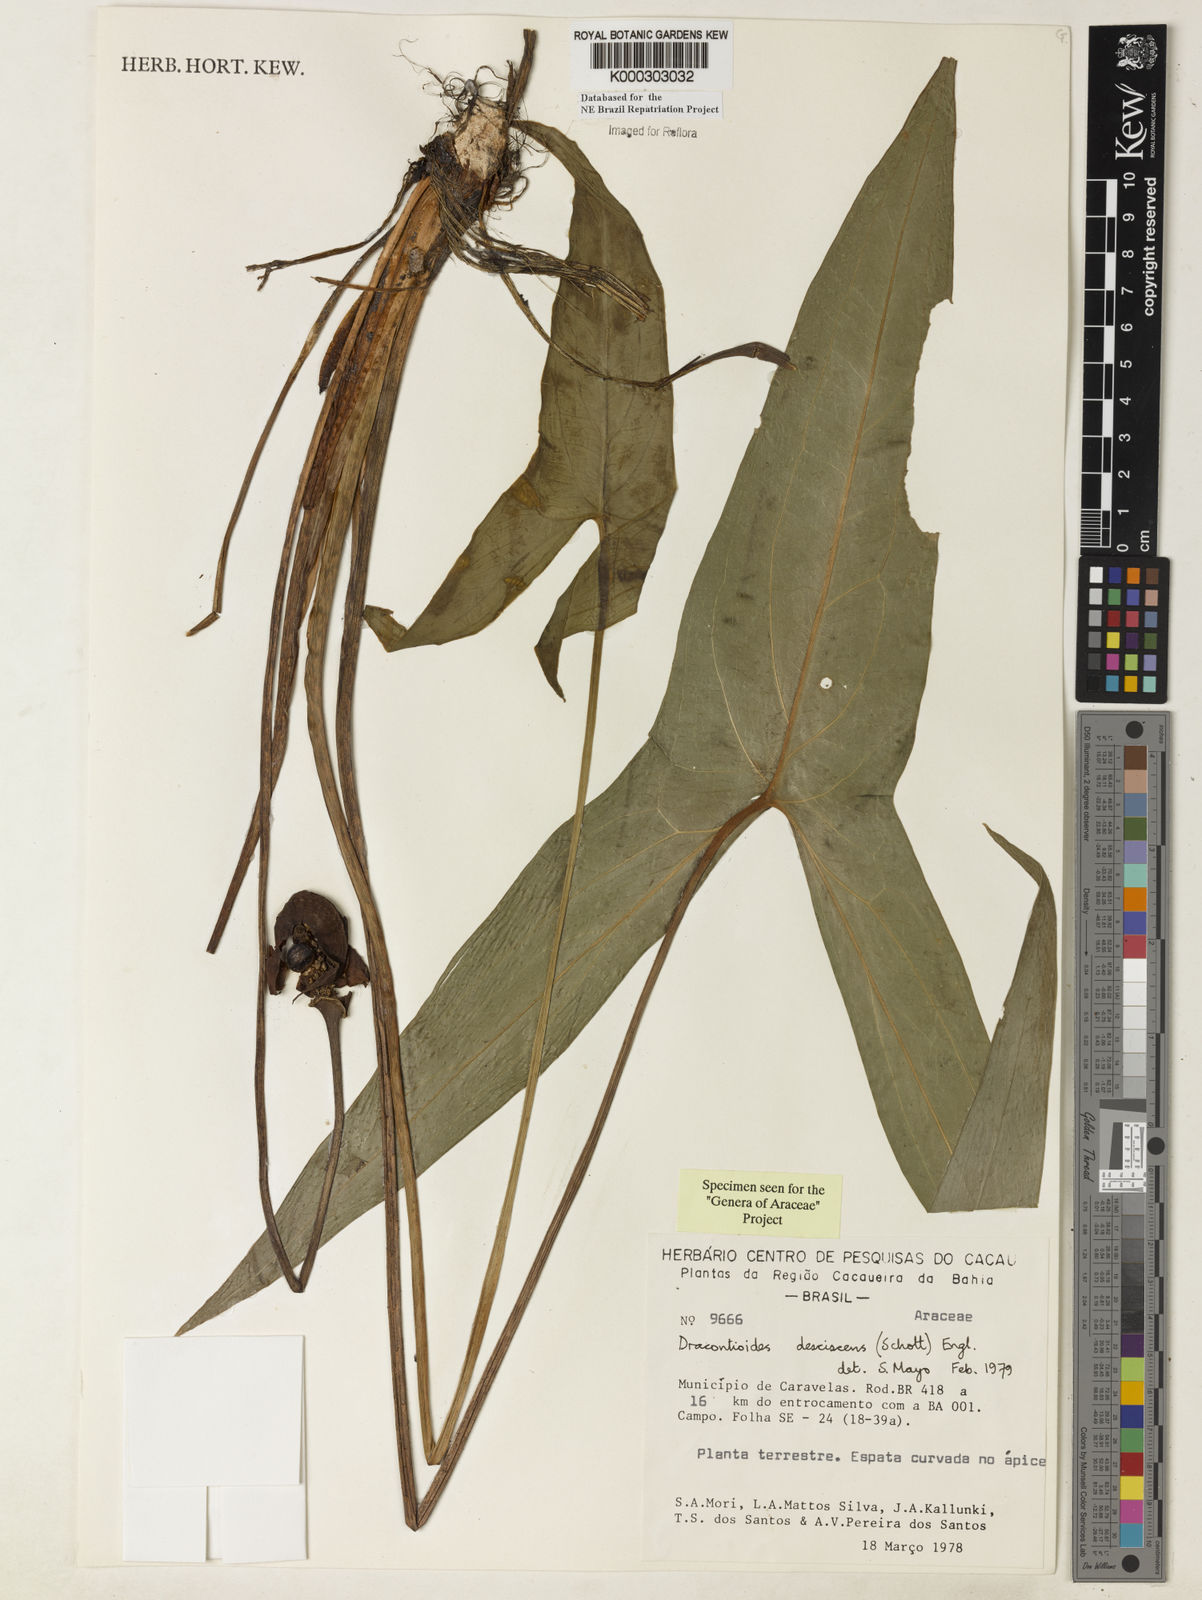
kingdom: Plantae
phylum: Tracheophyta
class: Liliopsida
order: Alismatales
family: Araceae
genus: Dracontioides
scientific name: Dracontioides desciscens
